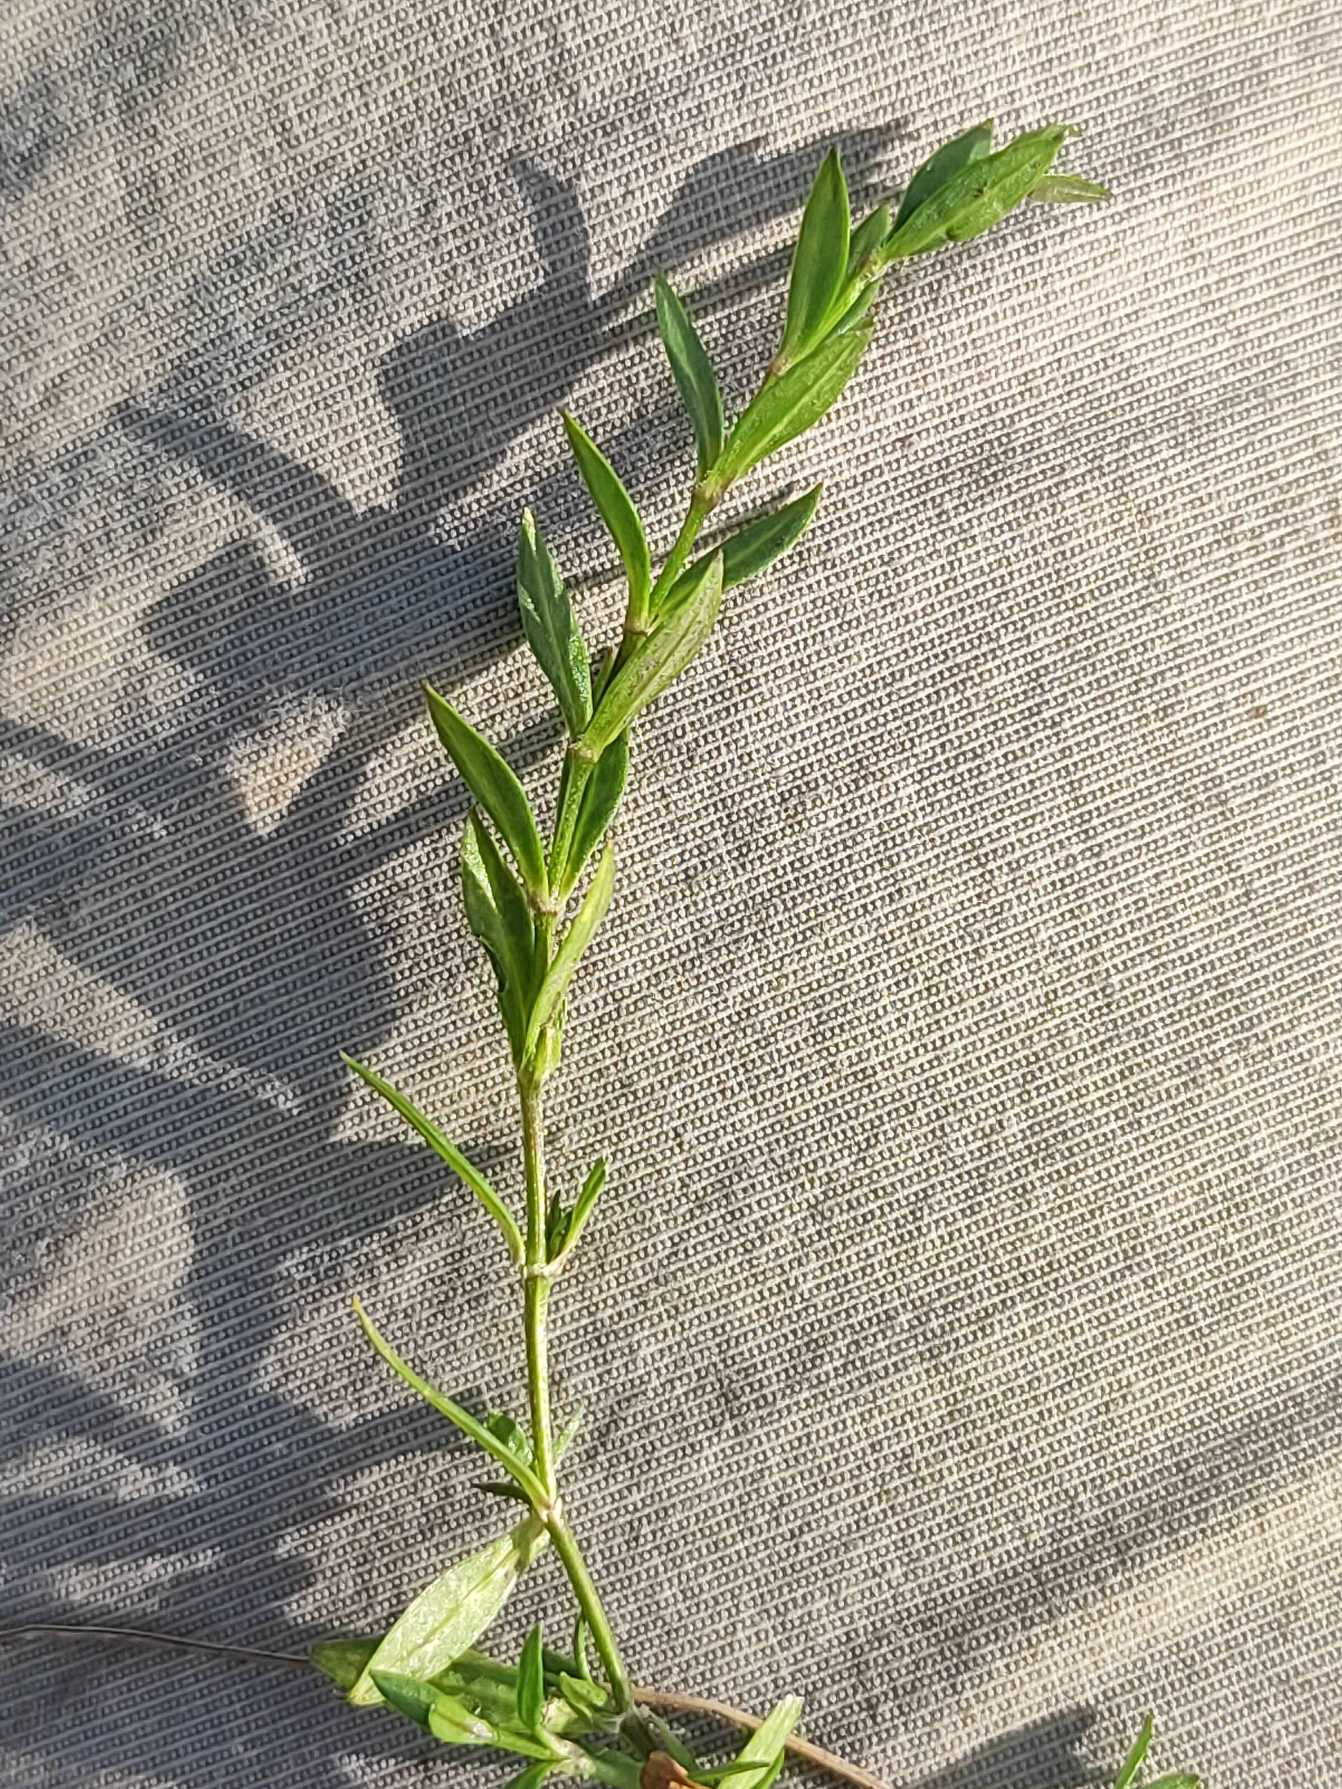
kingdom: Plantae
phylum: Tracheophyta
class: Magnoliopsida
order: Caryophyllales
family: Caryophyllaceae
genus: Stellaria
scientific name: Stellaria graminea
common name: Græsbladet fladstjerne
